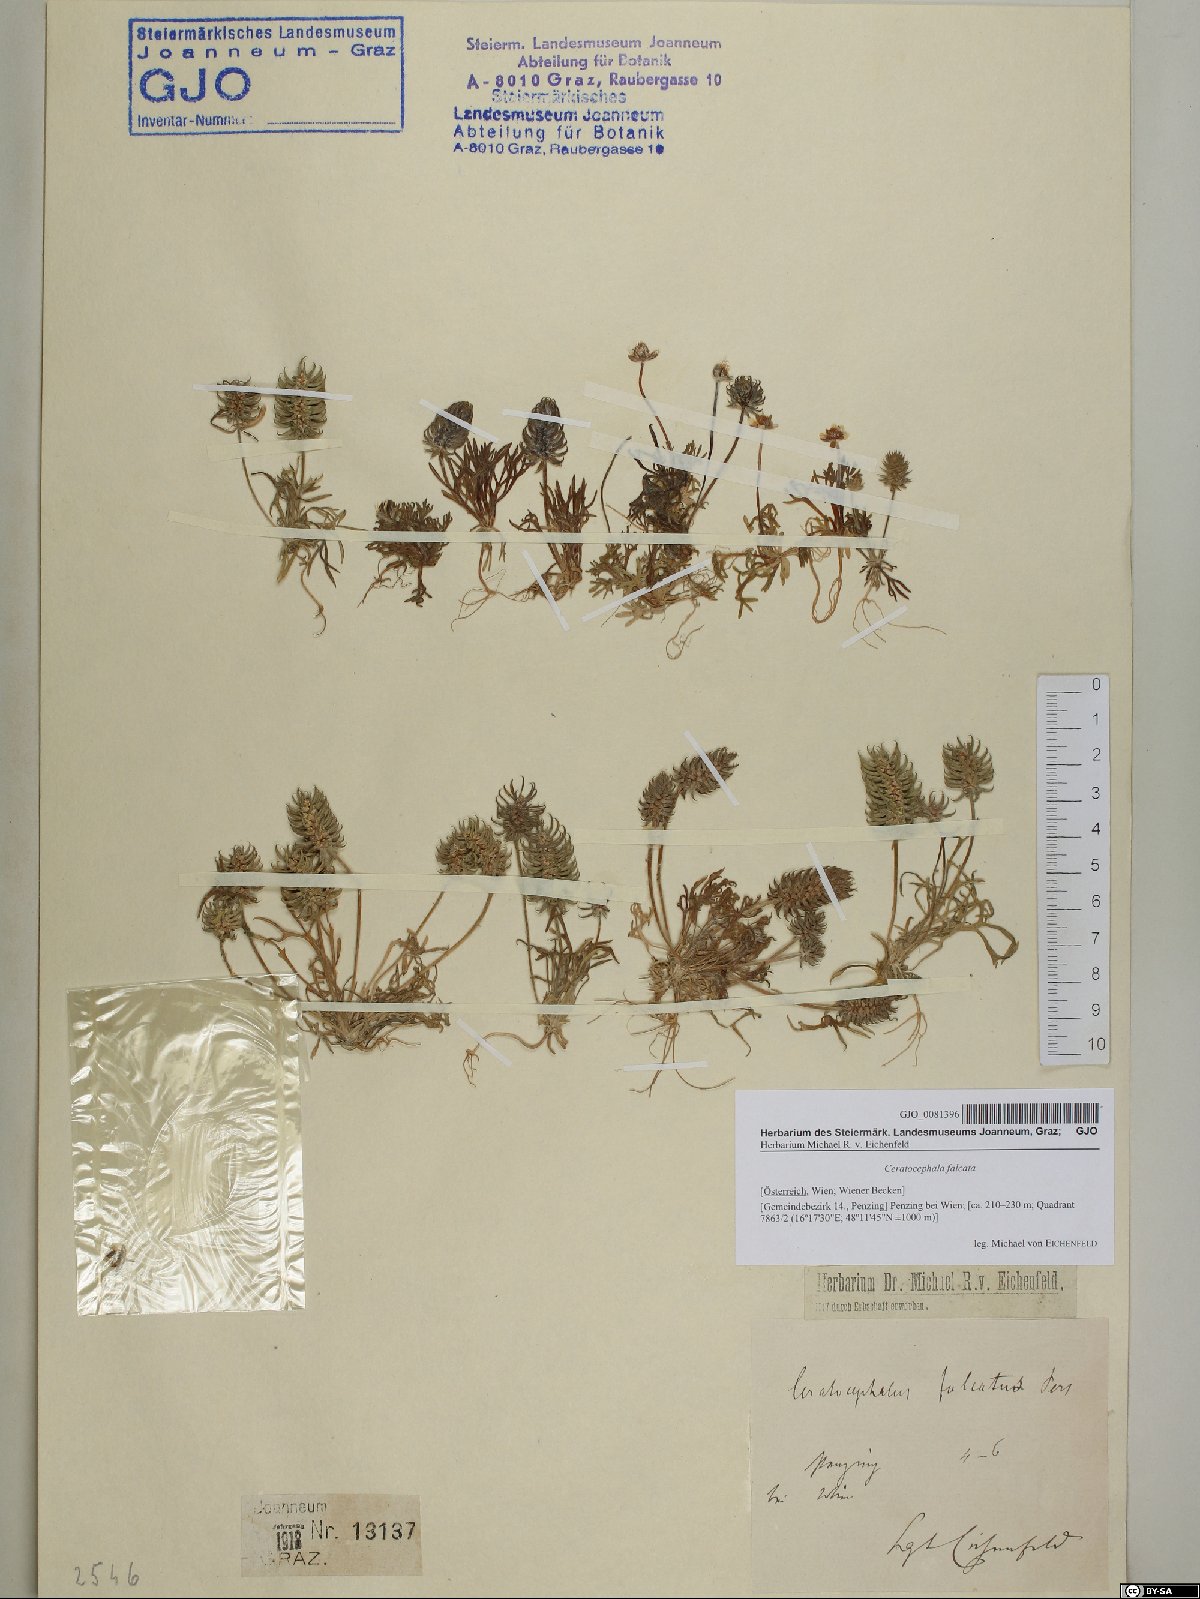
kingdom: Plantae
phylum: Tracheophyta
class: Magnoliopsida
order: Ranunculales
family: Ranunculaceae
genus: Ceratocephala
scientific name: Ceratocephala falcata
